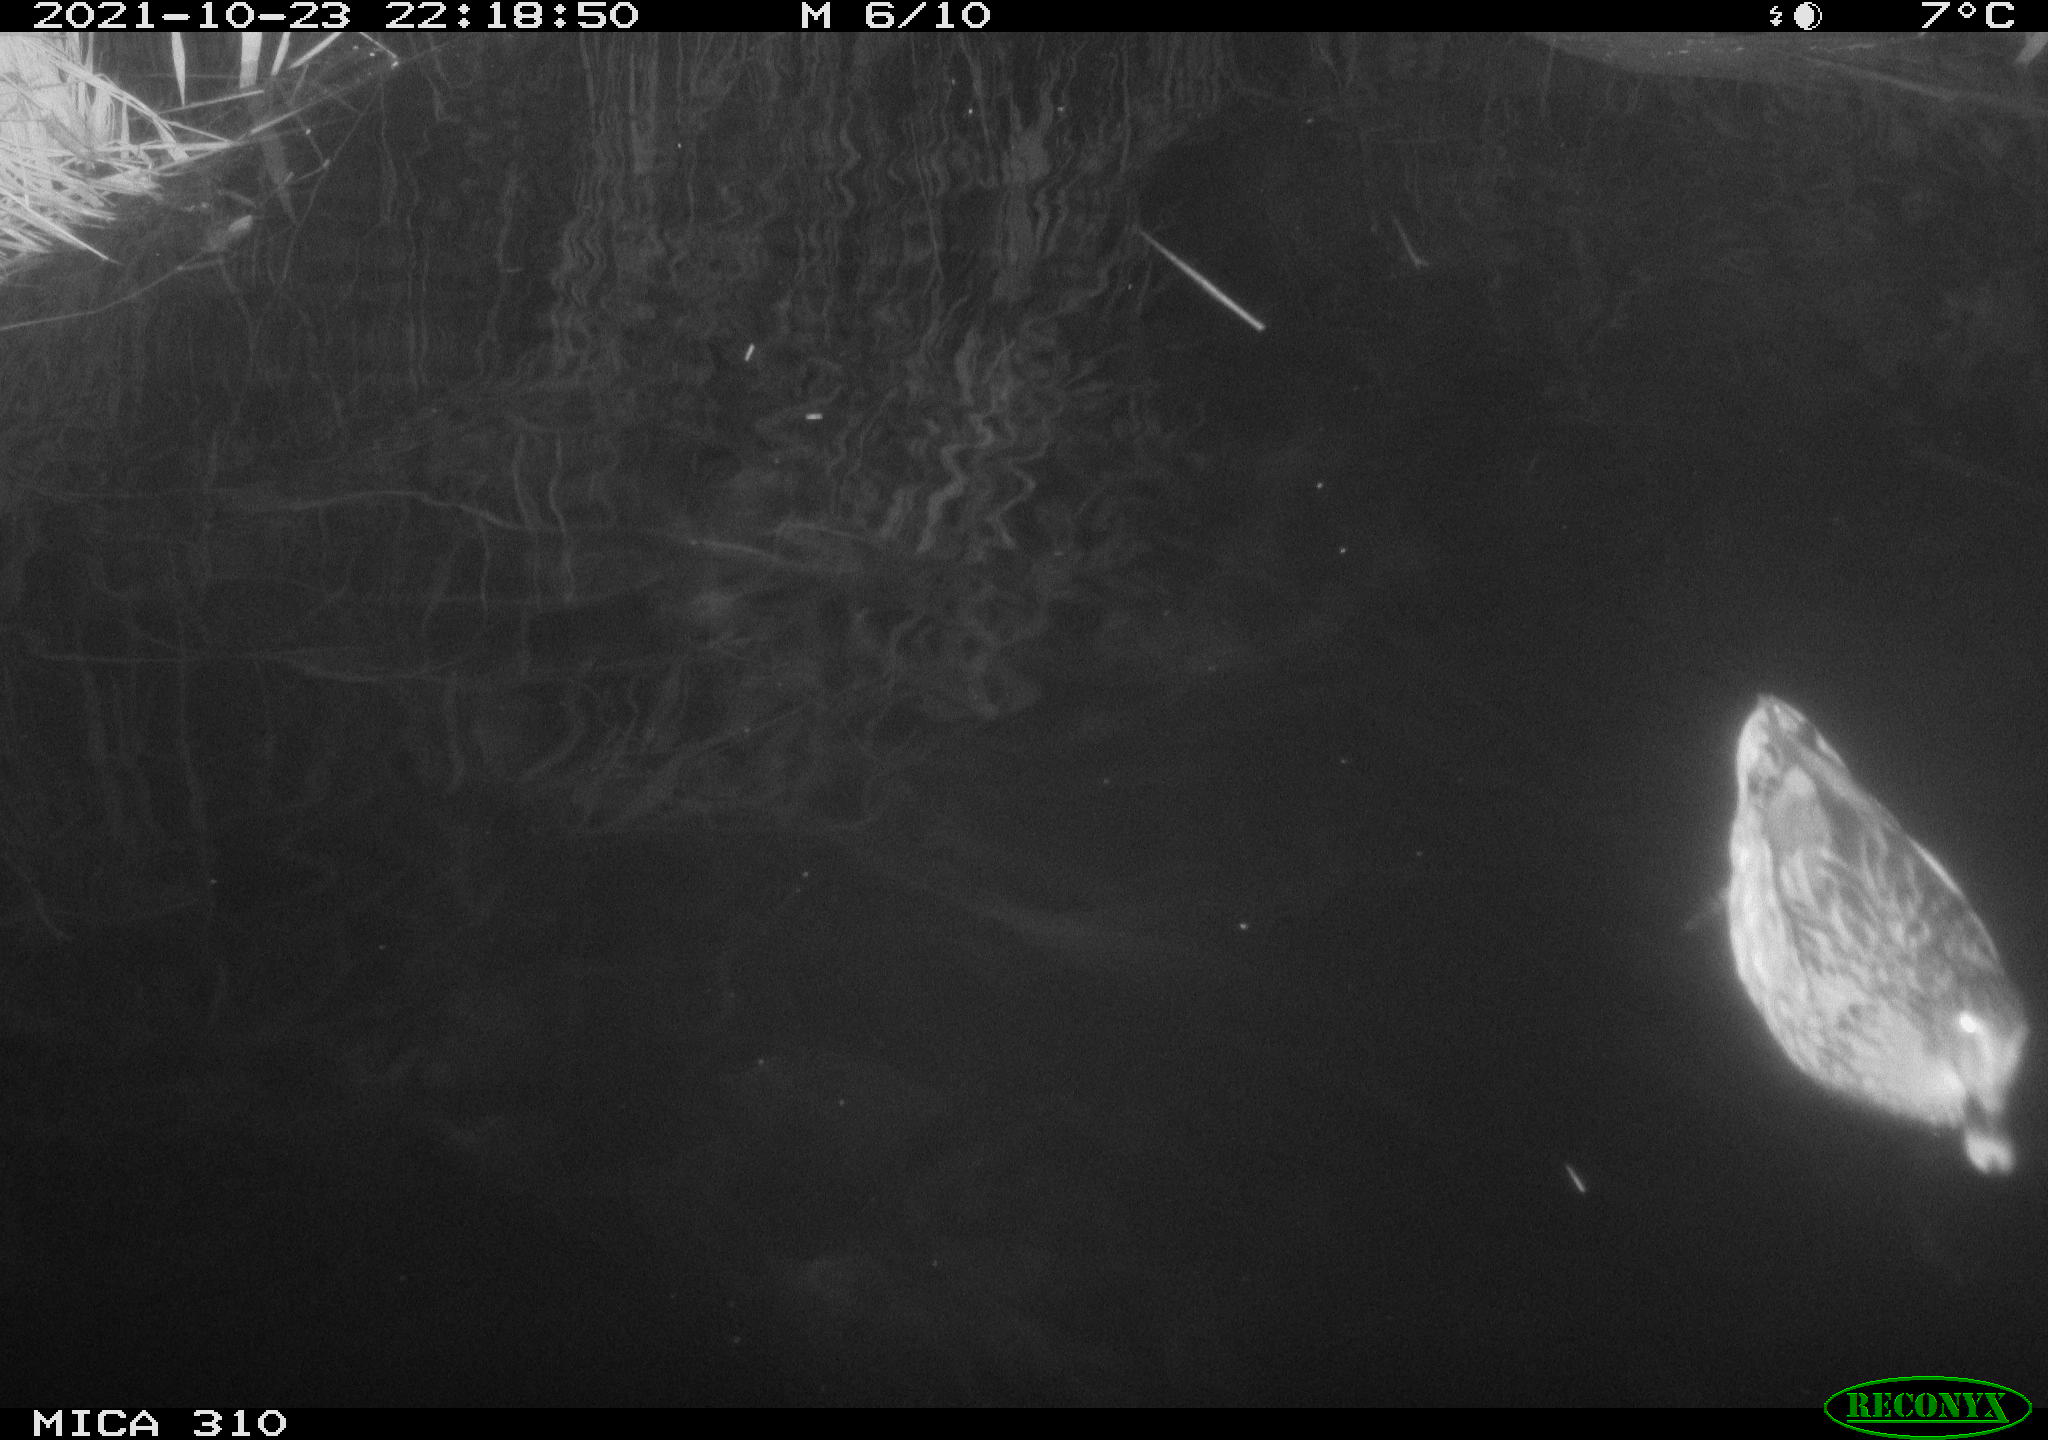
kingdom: Animalia
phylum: Chordata
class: Aves
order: Anseriformes
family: Anatidae
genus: Anas
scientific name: Anas platyrhynchos
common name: Mallard
